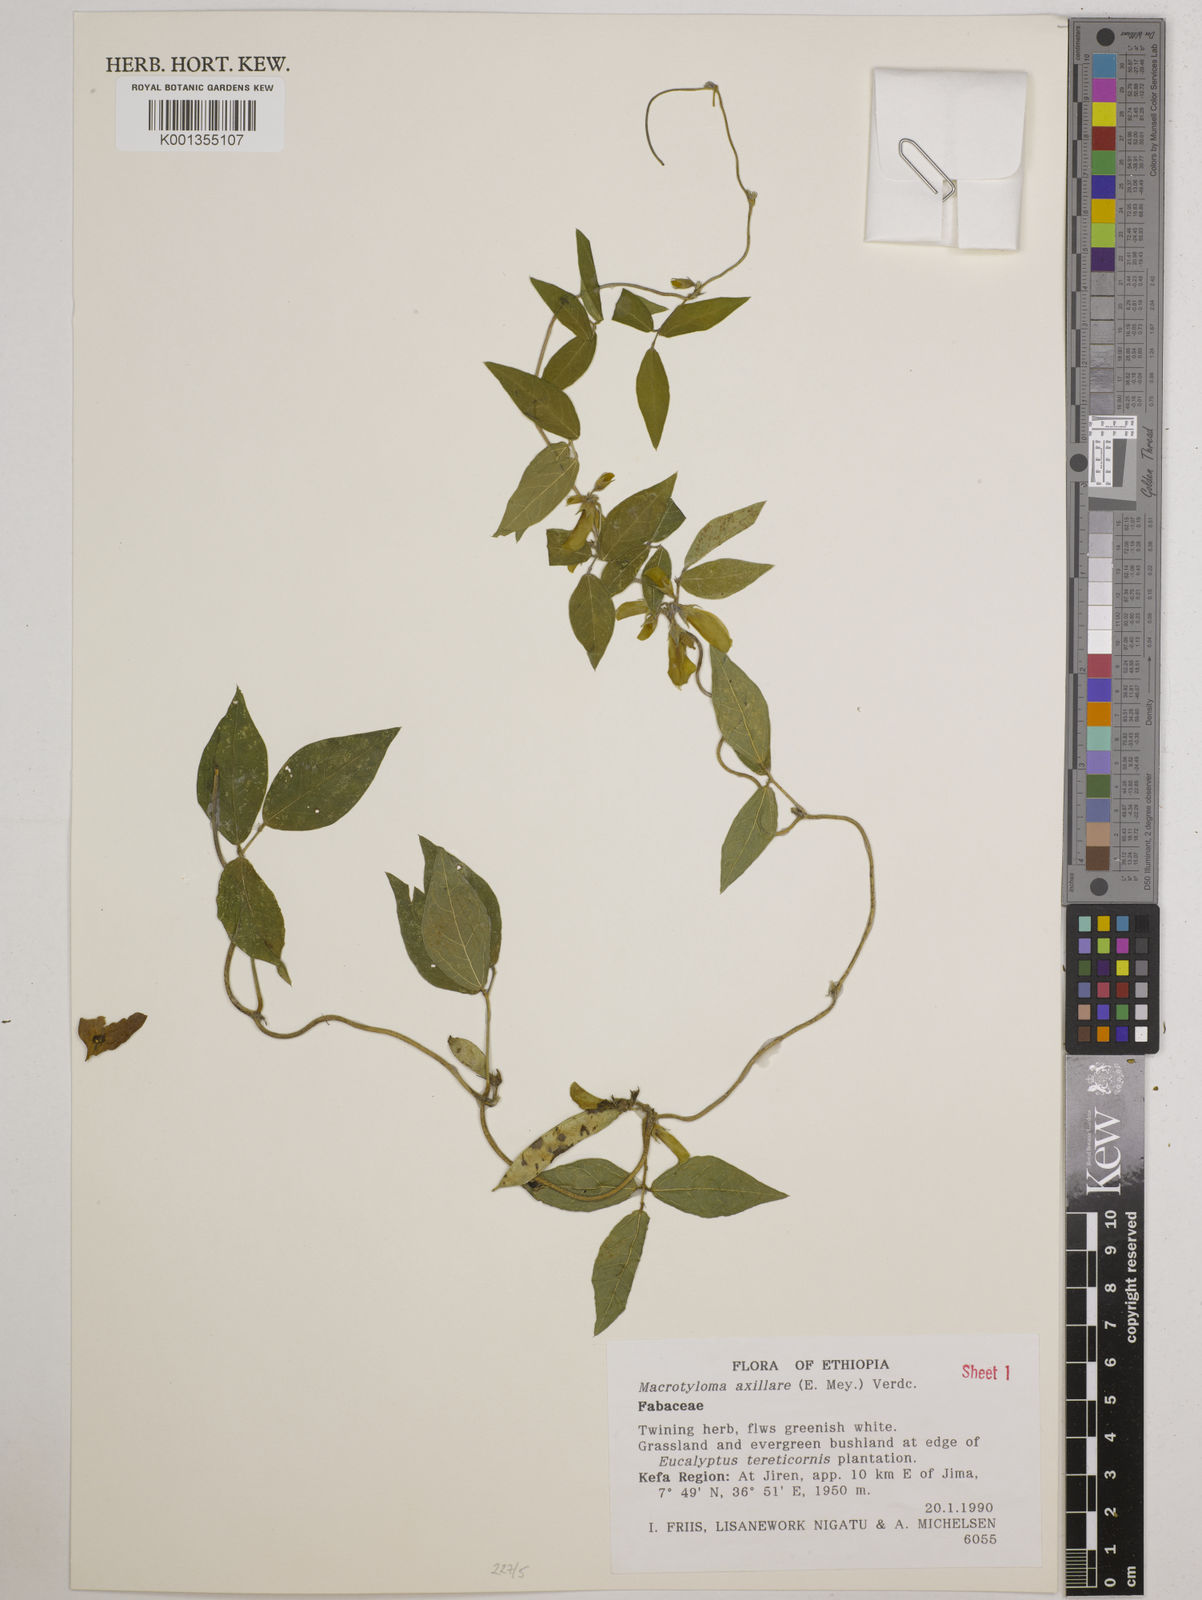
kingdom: Plantae
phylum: Tracheophyta
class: Magnoliopsida
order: Fabales
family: Fabaceae
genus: Macrotyloma
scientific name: Macrotyloma axillare
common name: Perennial horsegram
